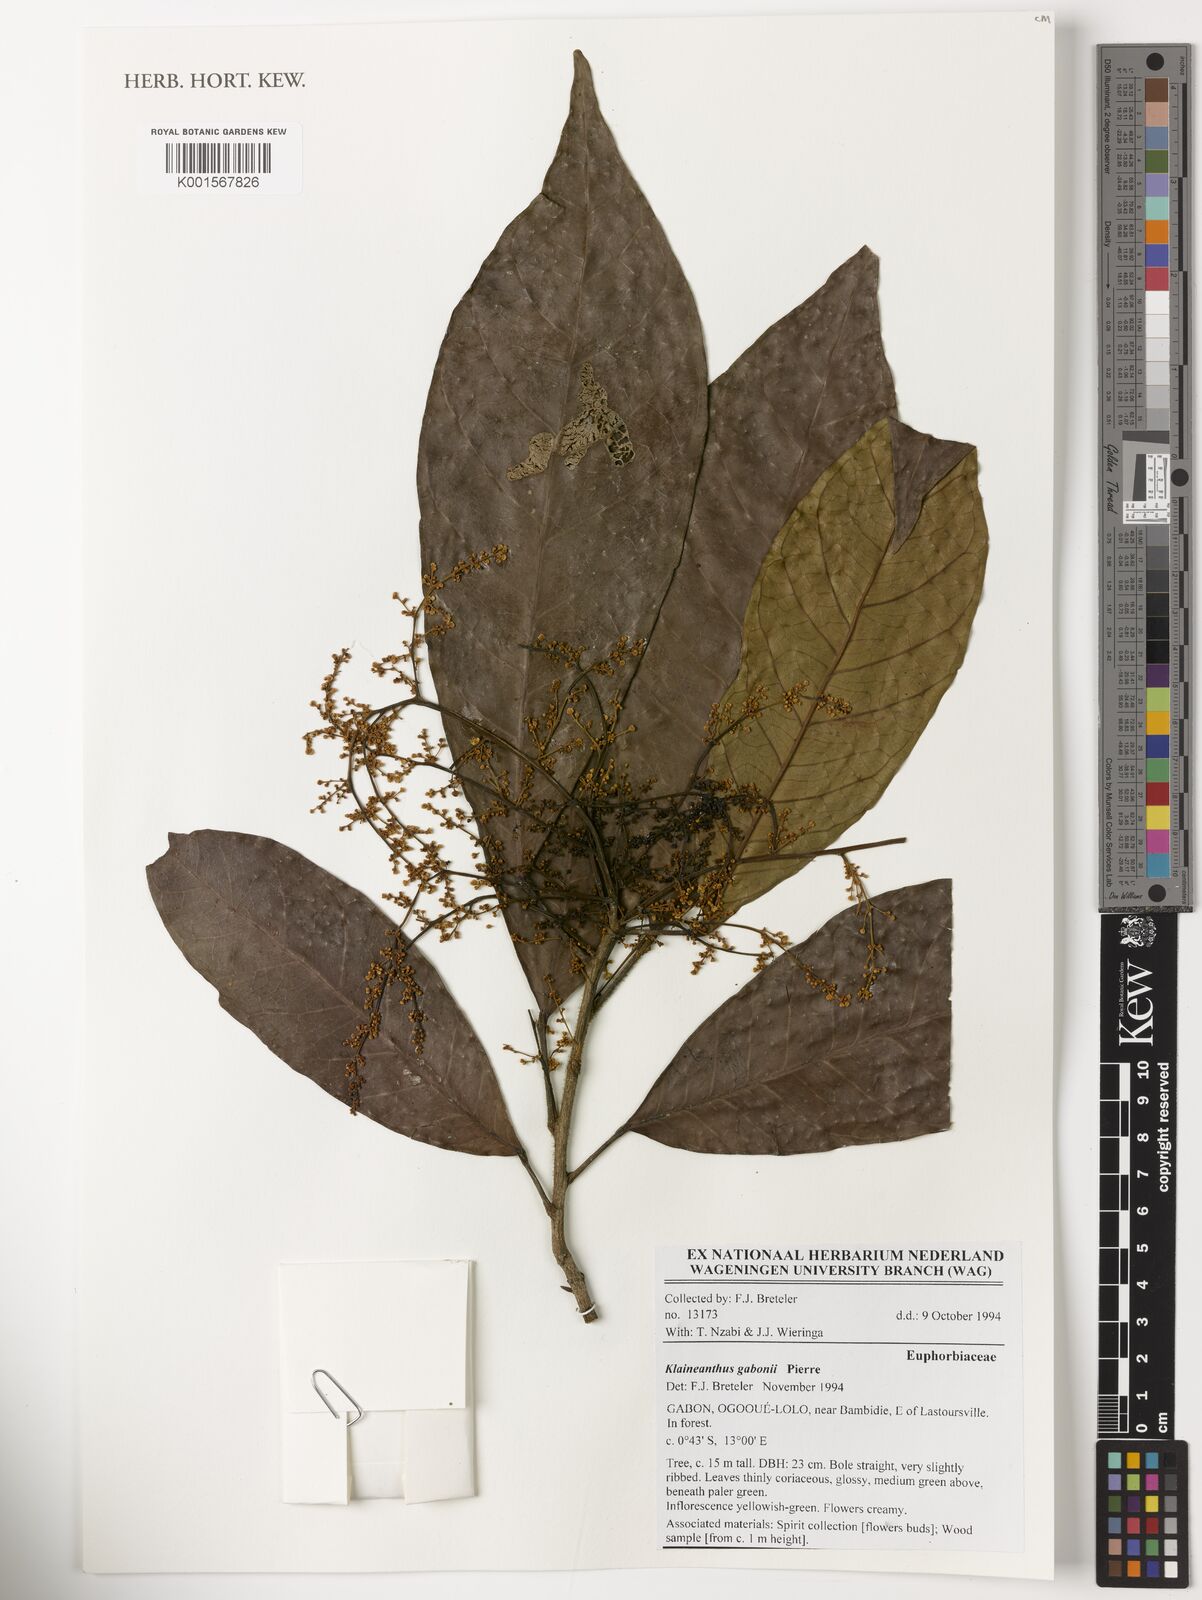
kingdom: Plantae
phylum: Tracheophyta
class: Magnoliopsida
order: Malpighiales
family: Euphorbiaceae
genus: Klaineanthus
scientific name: Klaineanthus gaboniae
